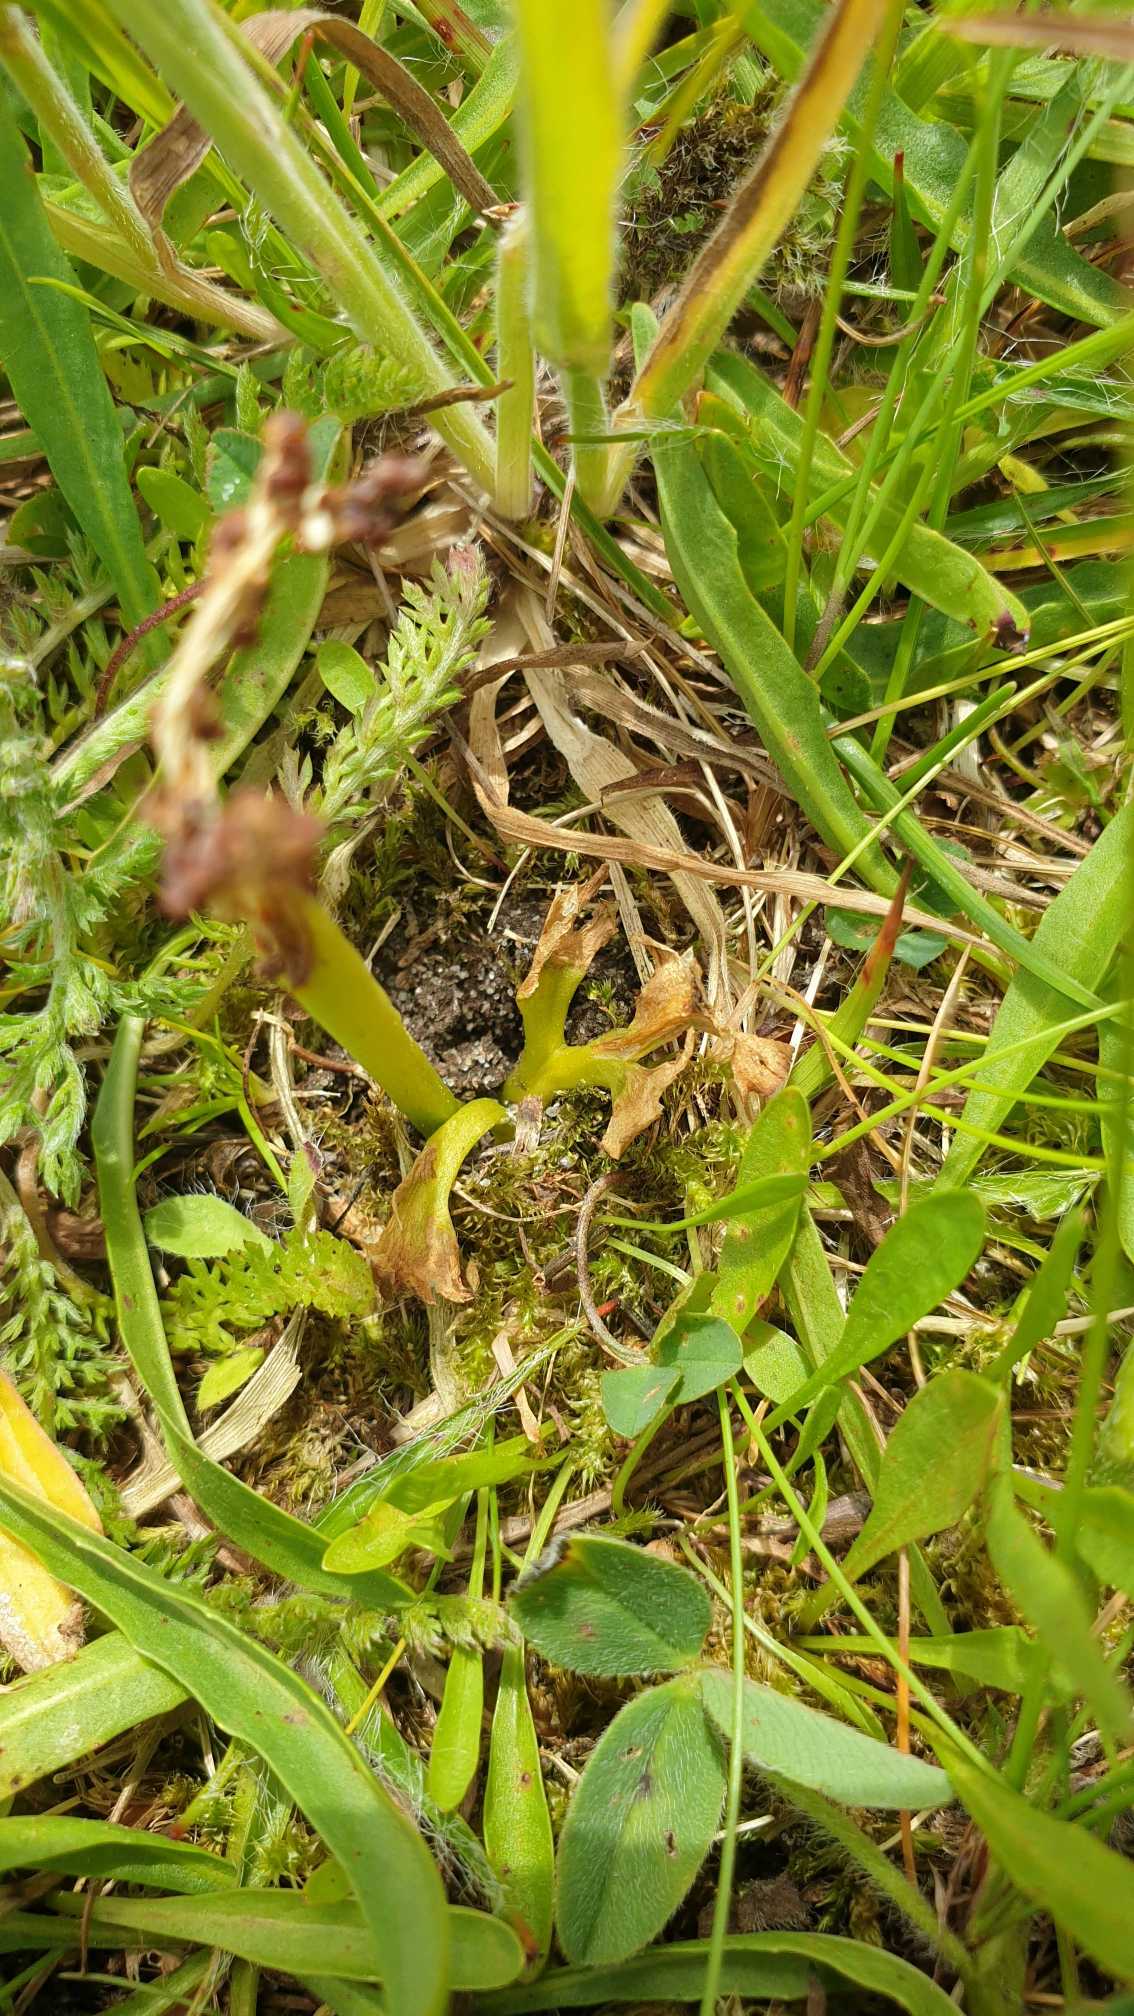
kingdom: Plantae
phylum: Tracheophyta
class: Polypodiopsida
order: Ophioglossales
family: Ophioglossaceae
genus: Sceptridium
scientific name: Sceptridium multifidum
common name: Stilk-månerude
